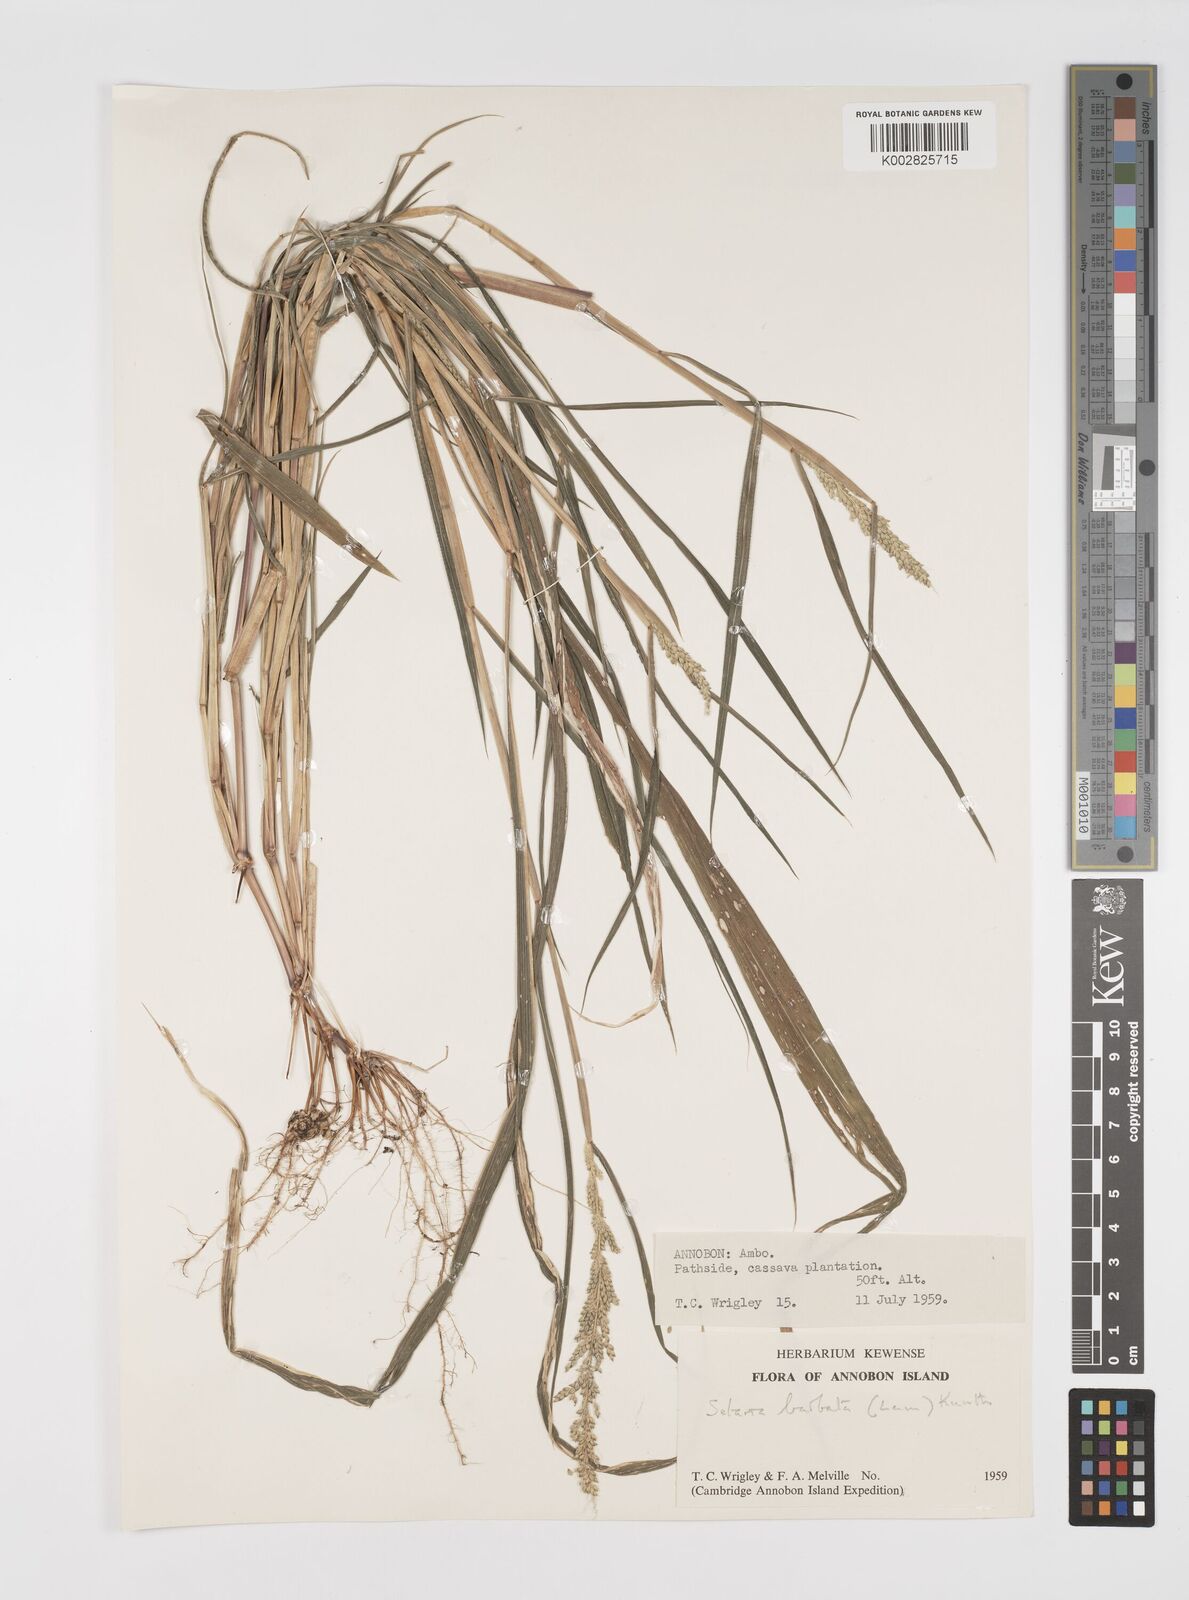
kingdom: Plantae
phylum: Tracheophyta
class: Liliopsida
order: Poales
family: Poaceae
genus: Setaria
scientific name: Setaria barbata
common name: East indian bristlegrass
